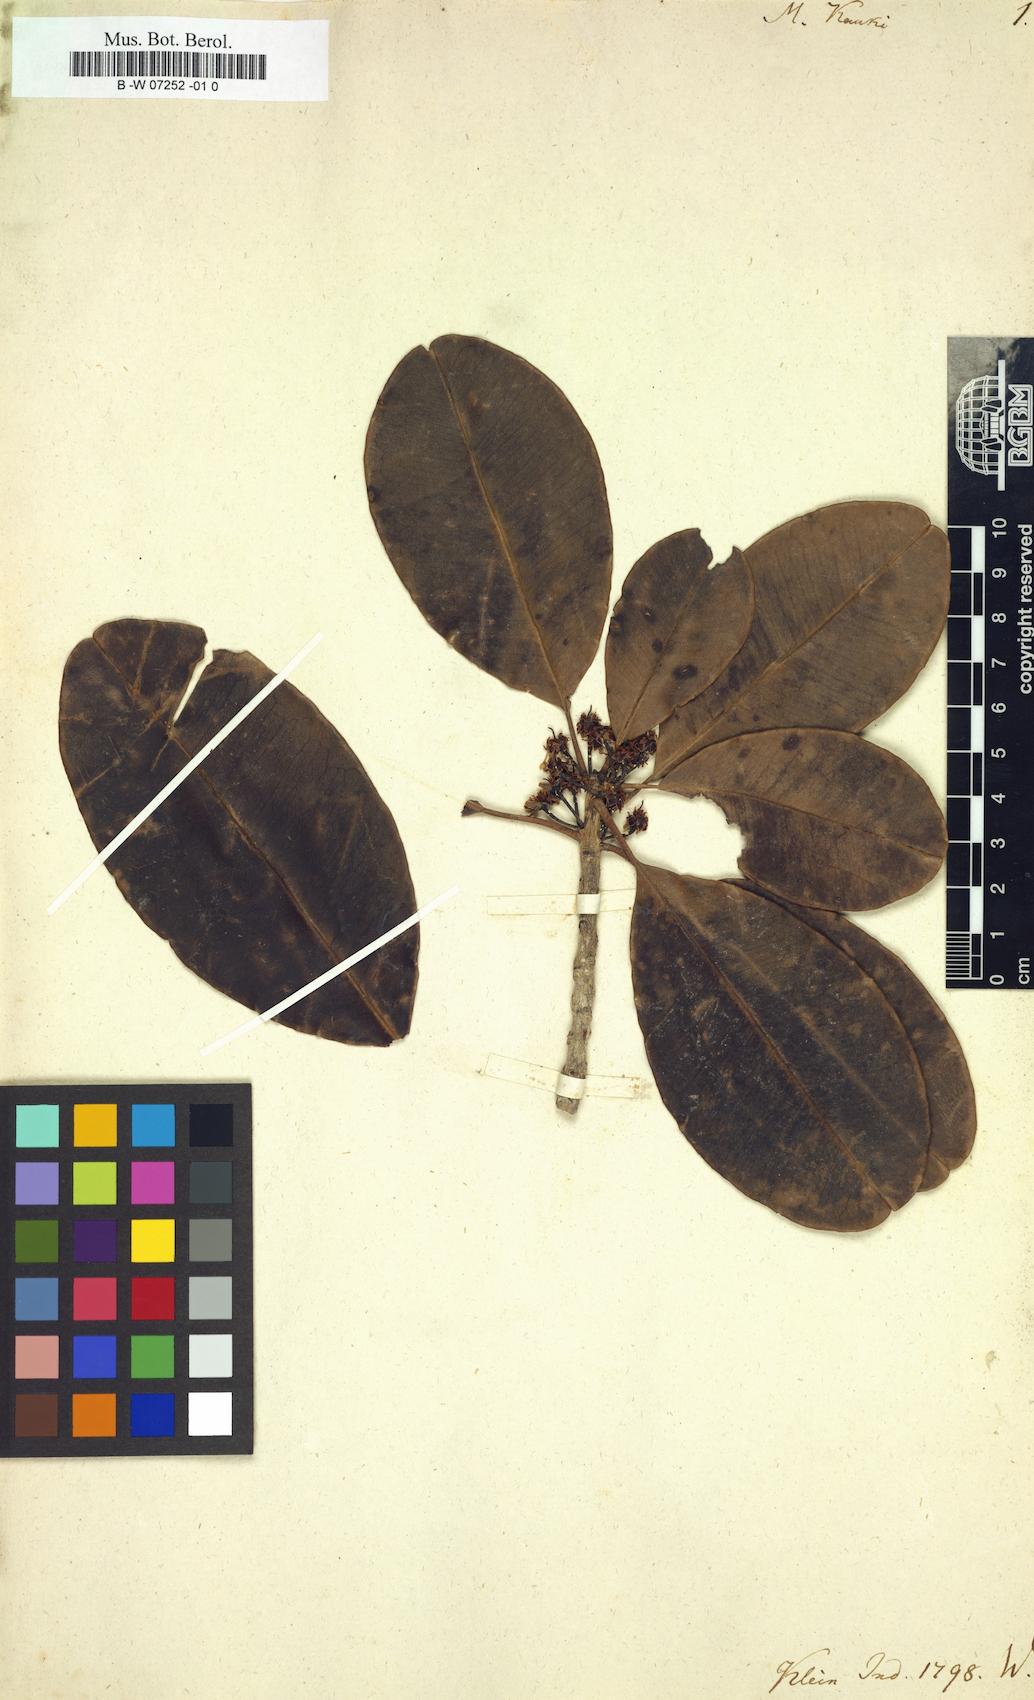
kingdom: Plantae
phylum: Tracheophyta
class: Magnoliopsida
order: Ericales
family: Sapotaceae
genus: Mimusops
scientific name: Mimusops kauki
